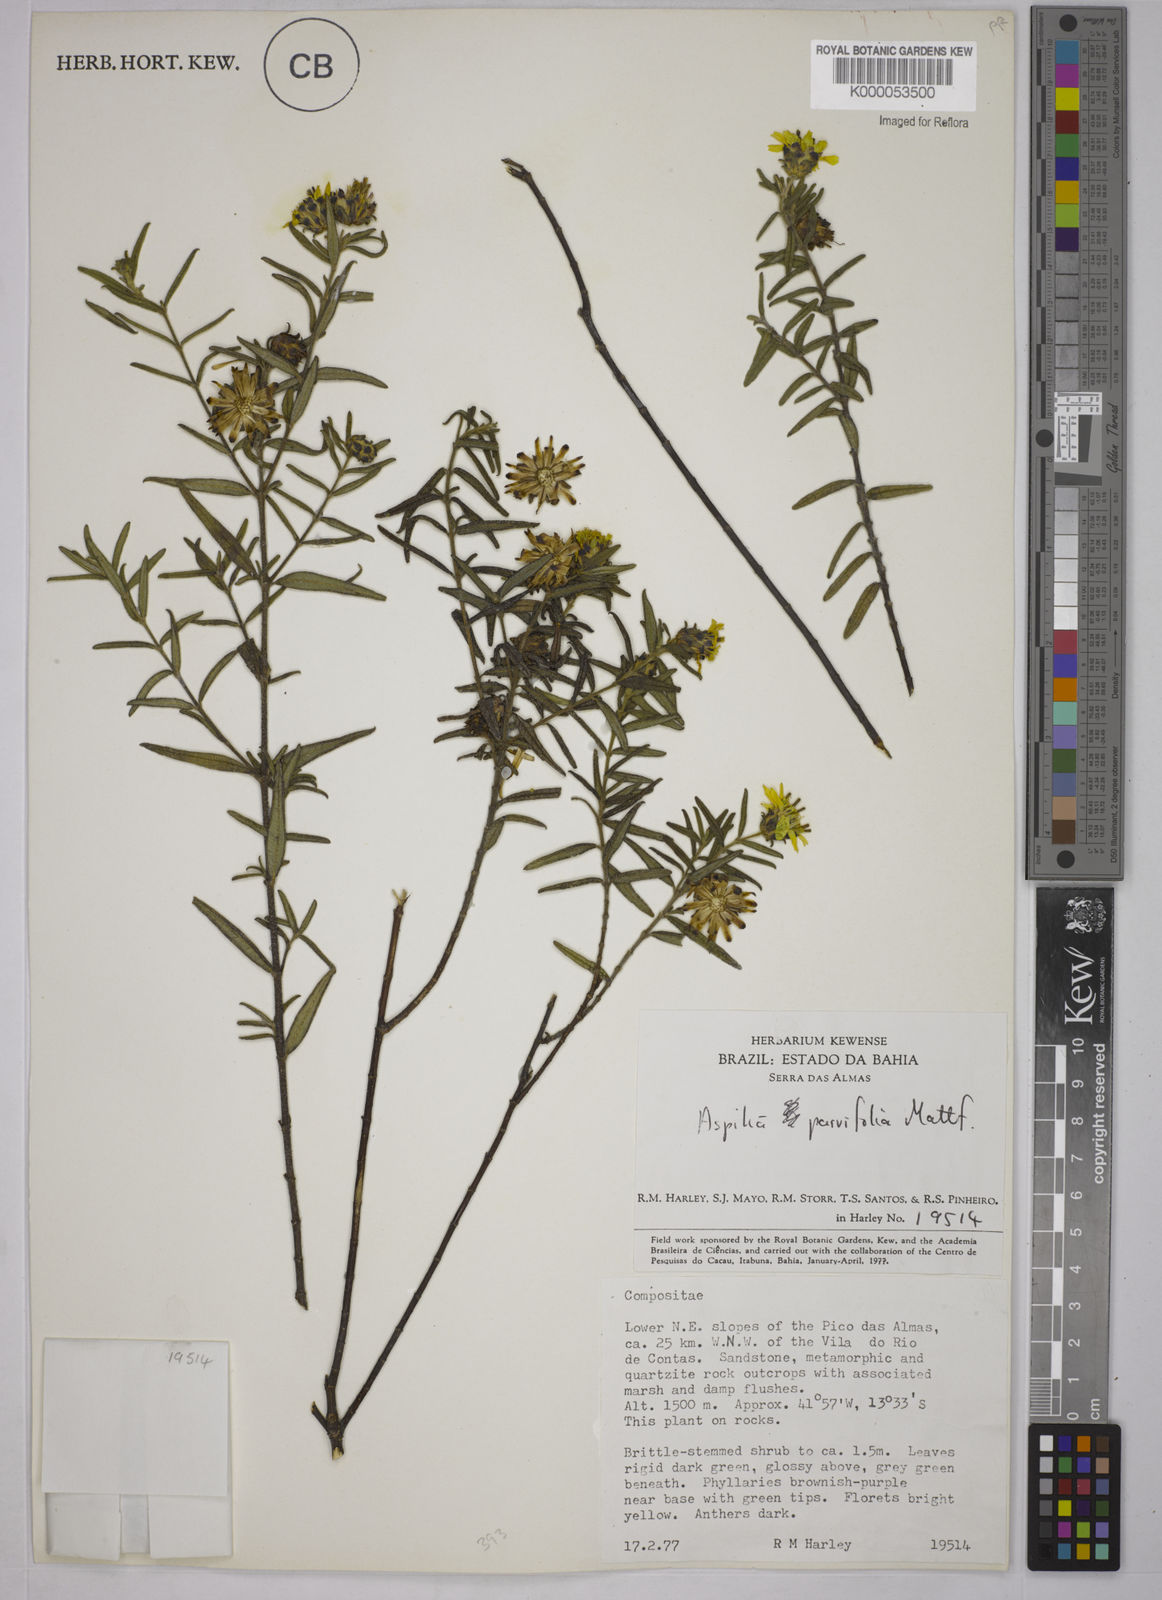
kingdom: Plantae
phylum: Tracheophyta
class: Magnoliopsida
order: Asterales
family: Asteraceae
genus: Aspilia
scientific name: Aspilia foliosa
